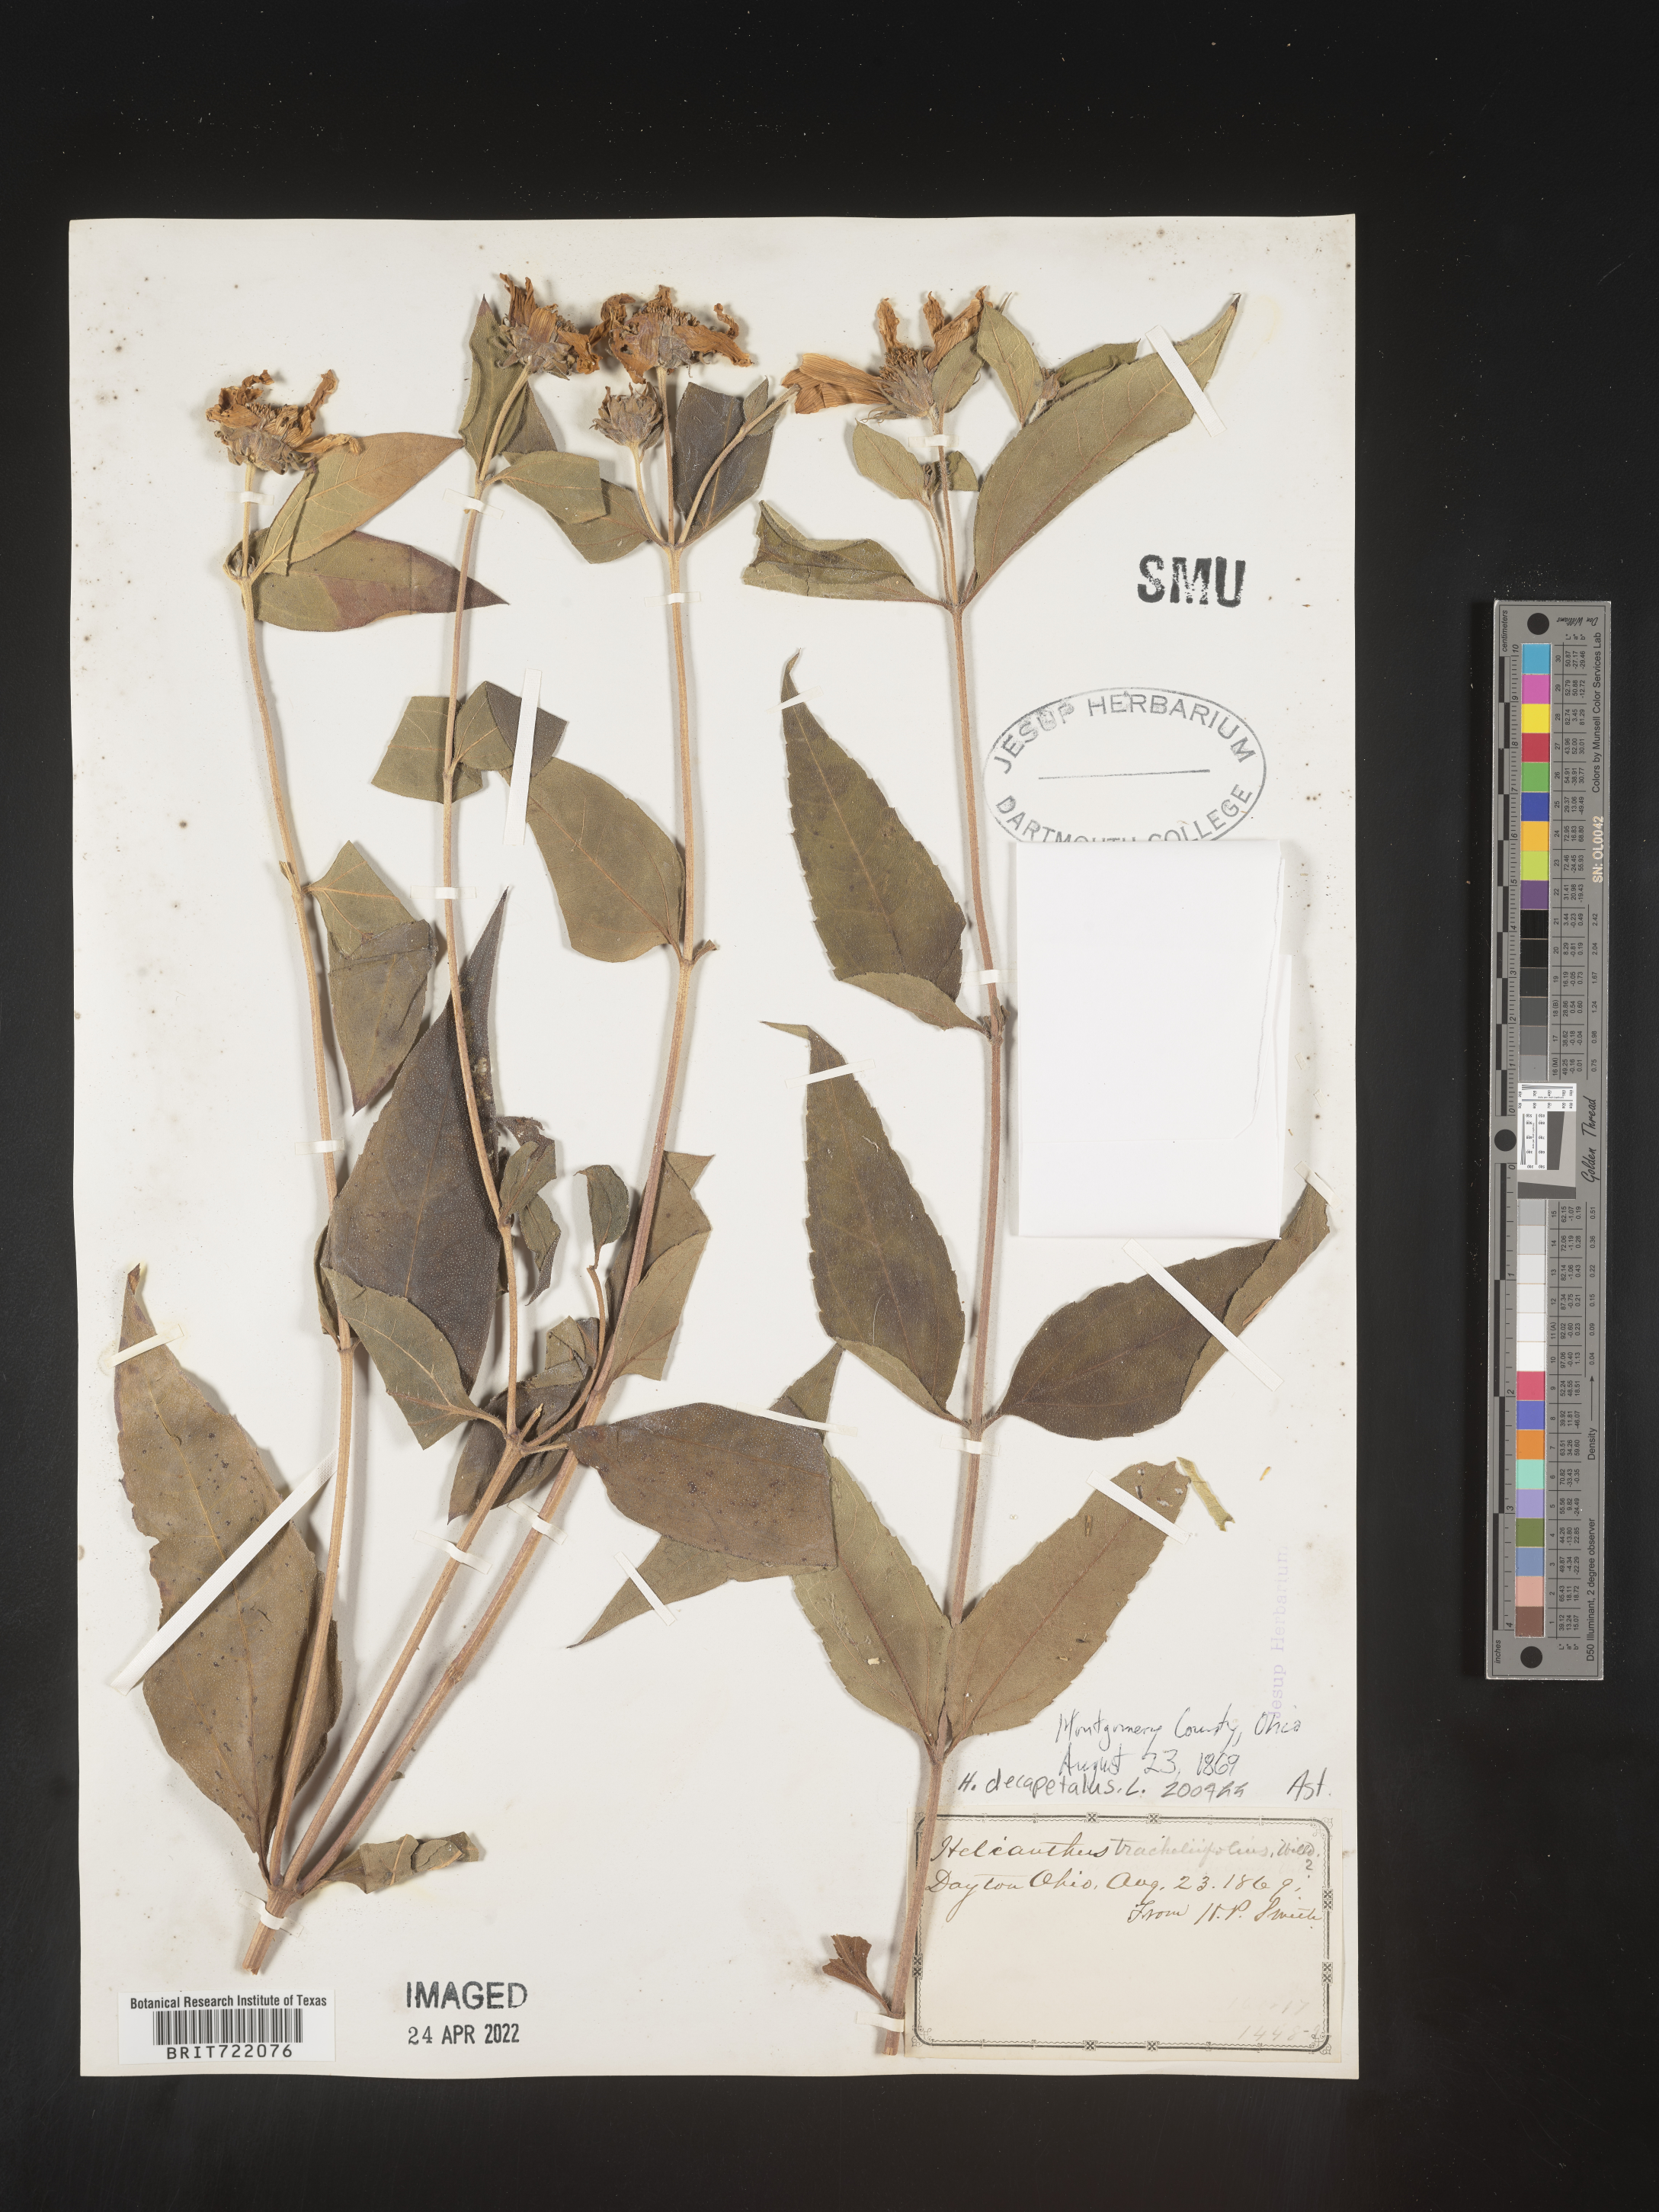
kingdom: Plantae
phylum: Tracheophyta
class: Magnoliopsida
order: Asterales
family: Asteraceae
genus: Helianthus
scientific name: Helianthus decapetalus
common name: Thin-leaved sunflower
